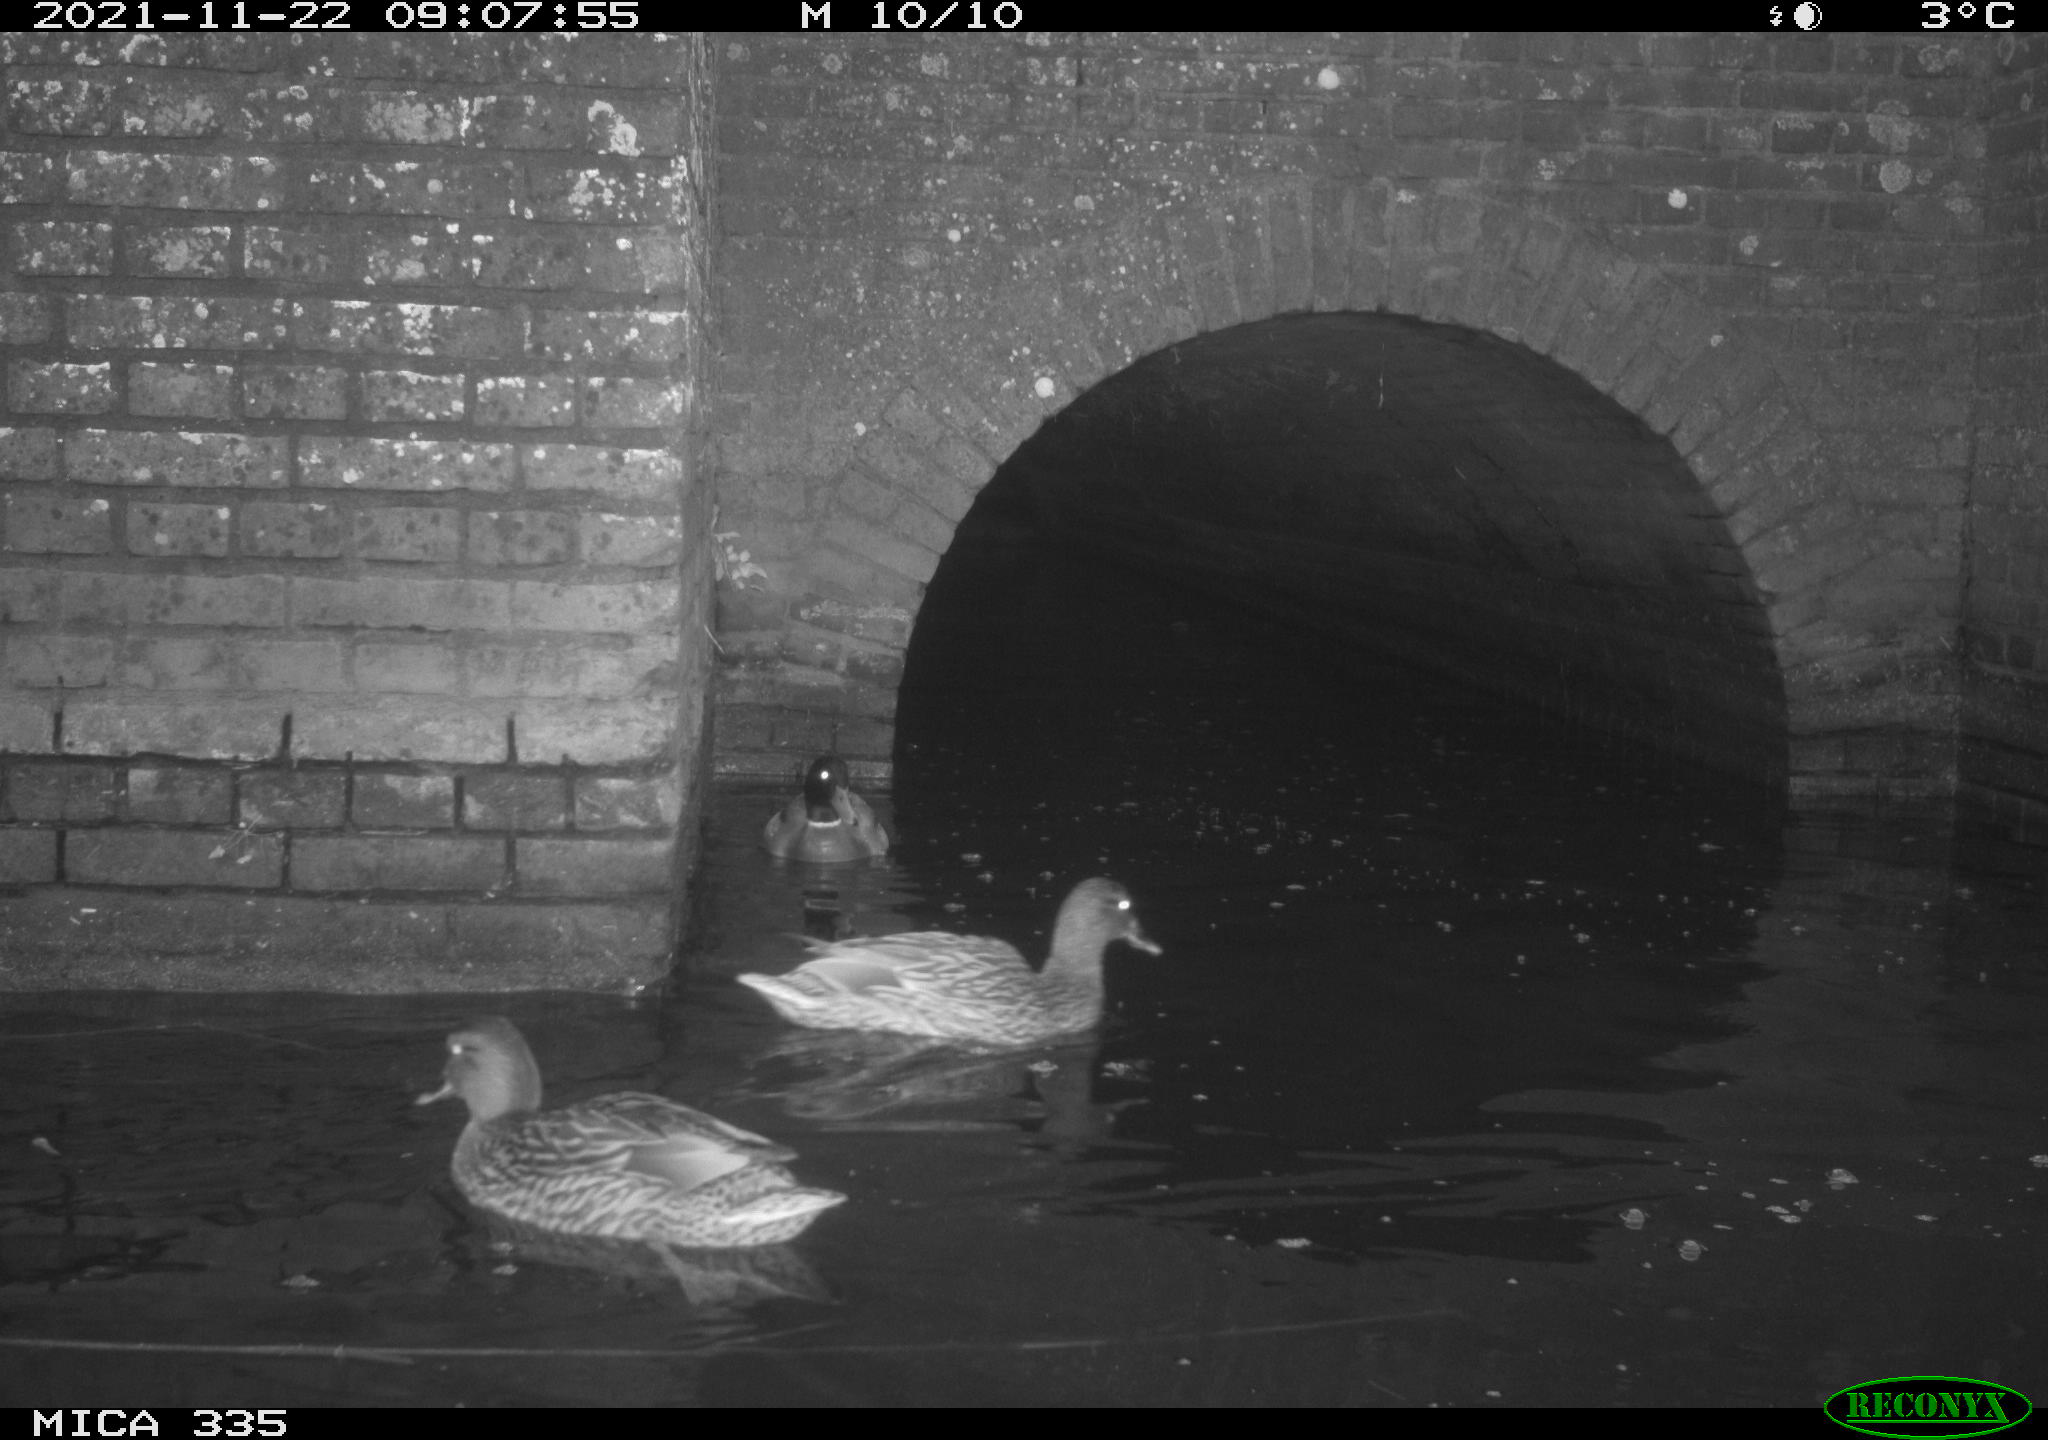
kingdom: Animalia
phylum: Chordata
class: Aves
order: Anseriformes
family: Anatidae
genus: Anas
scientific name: Anas platyrhynchos
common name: Mallard
